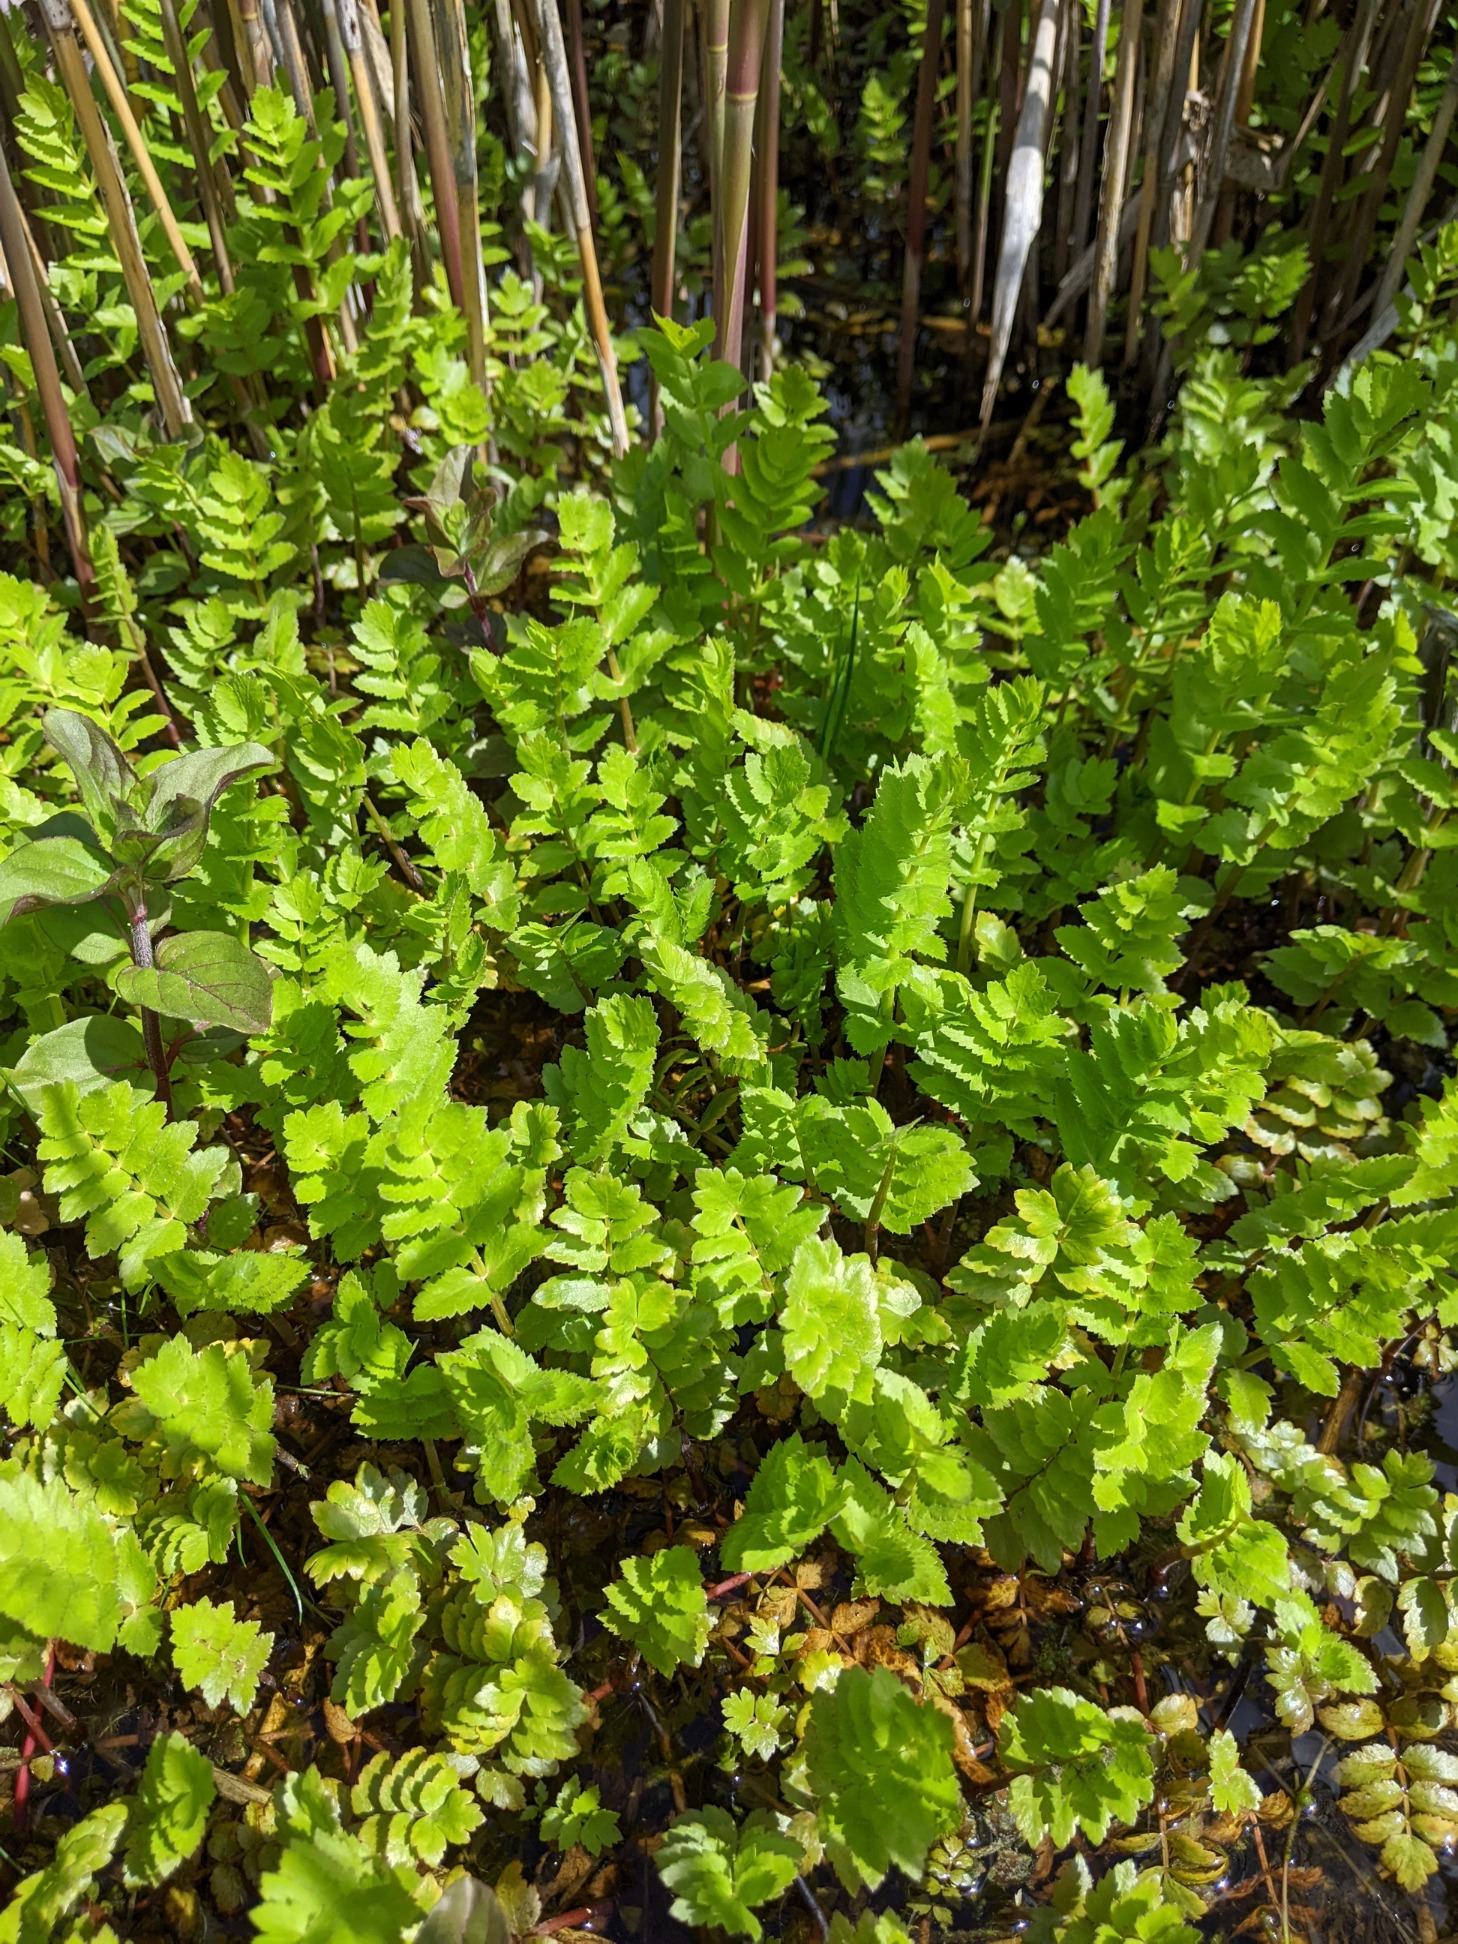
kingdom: Plantae
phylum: Tracheophyta
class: Magnoliopsida
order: Apiales
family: Apiaceae
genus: Berula
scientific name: Berula erecta
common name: Sideskærm
